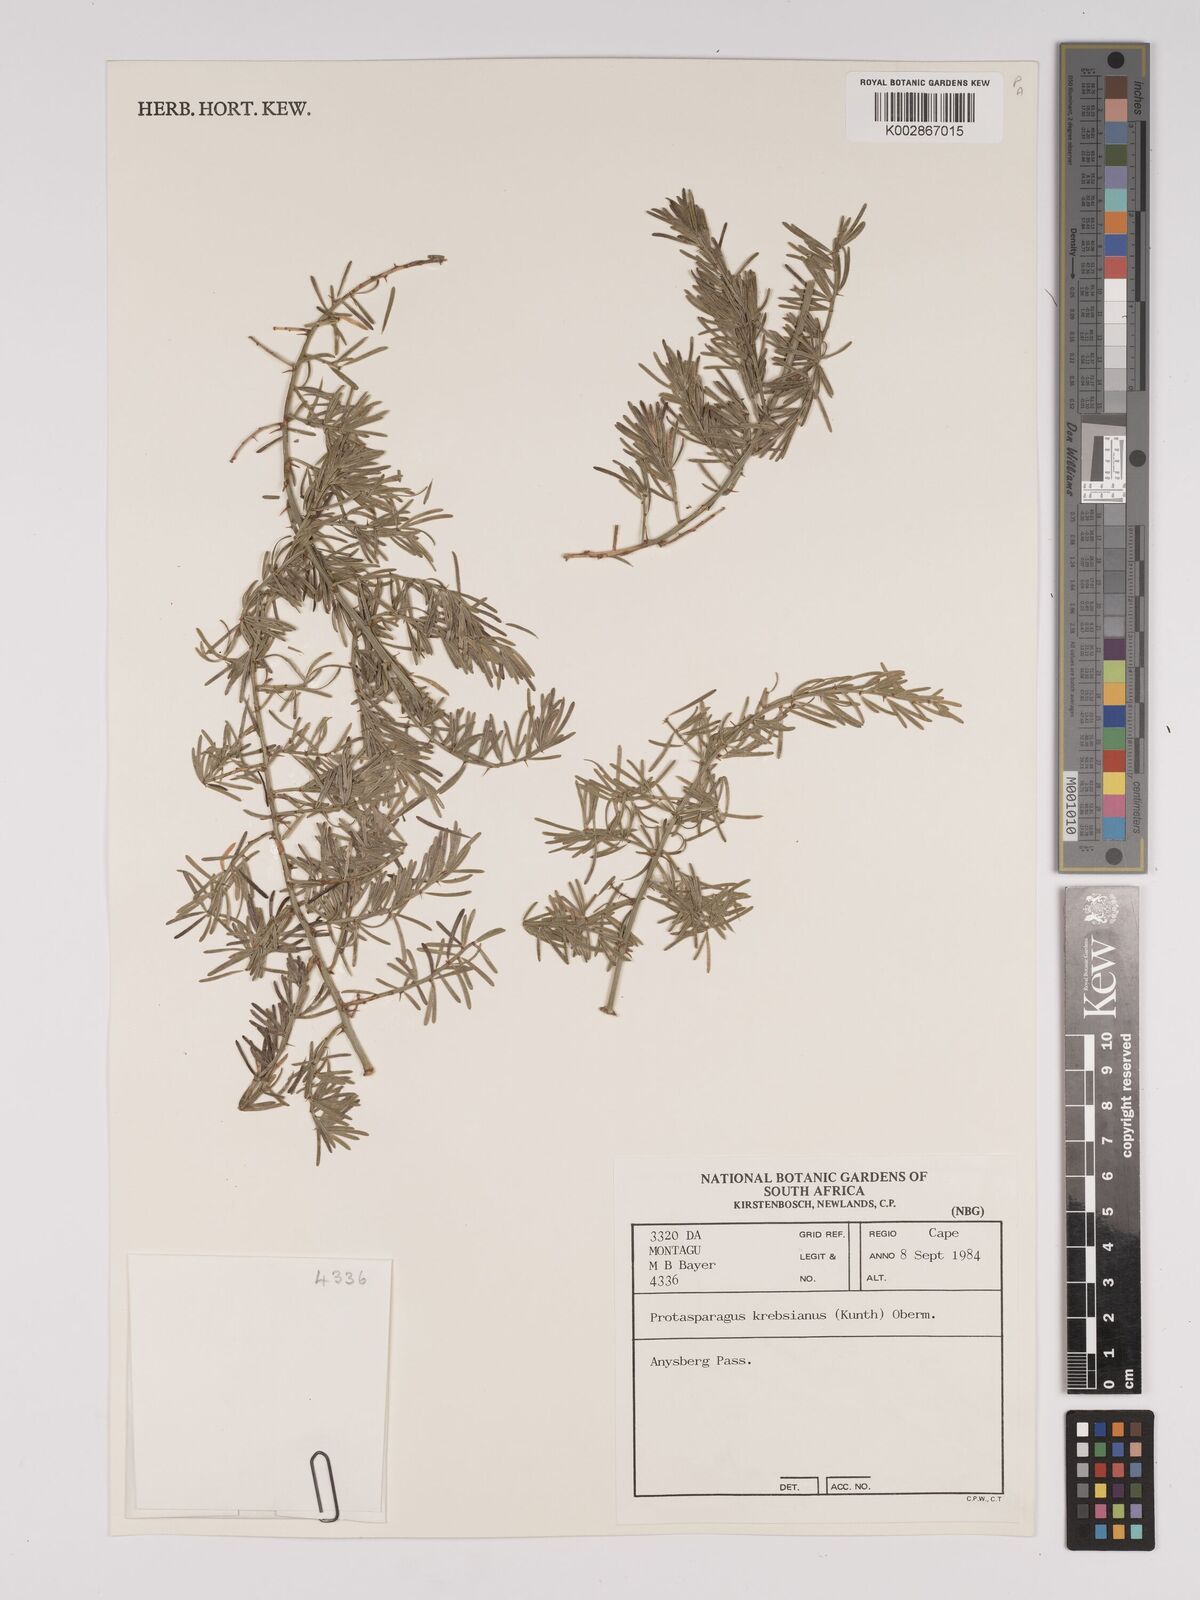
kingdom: Plantae
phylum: Tracheophyta
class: Liliopsida
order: Asparagales
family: Asparagaceae
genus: Asparagus
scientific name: Asparagus krebsianus
